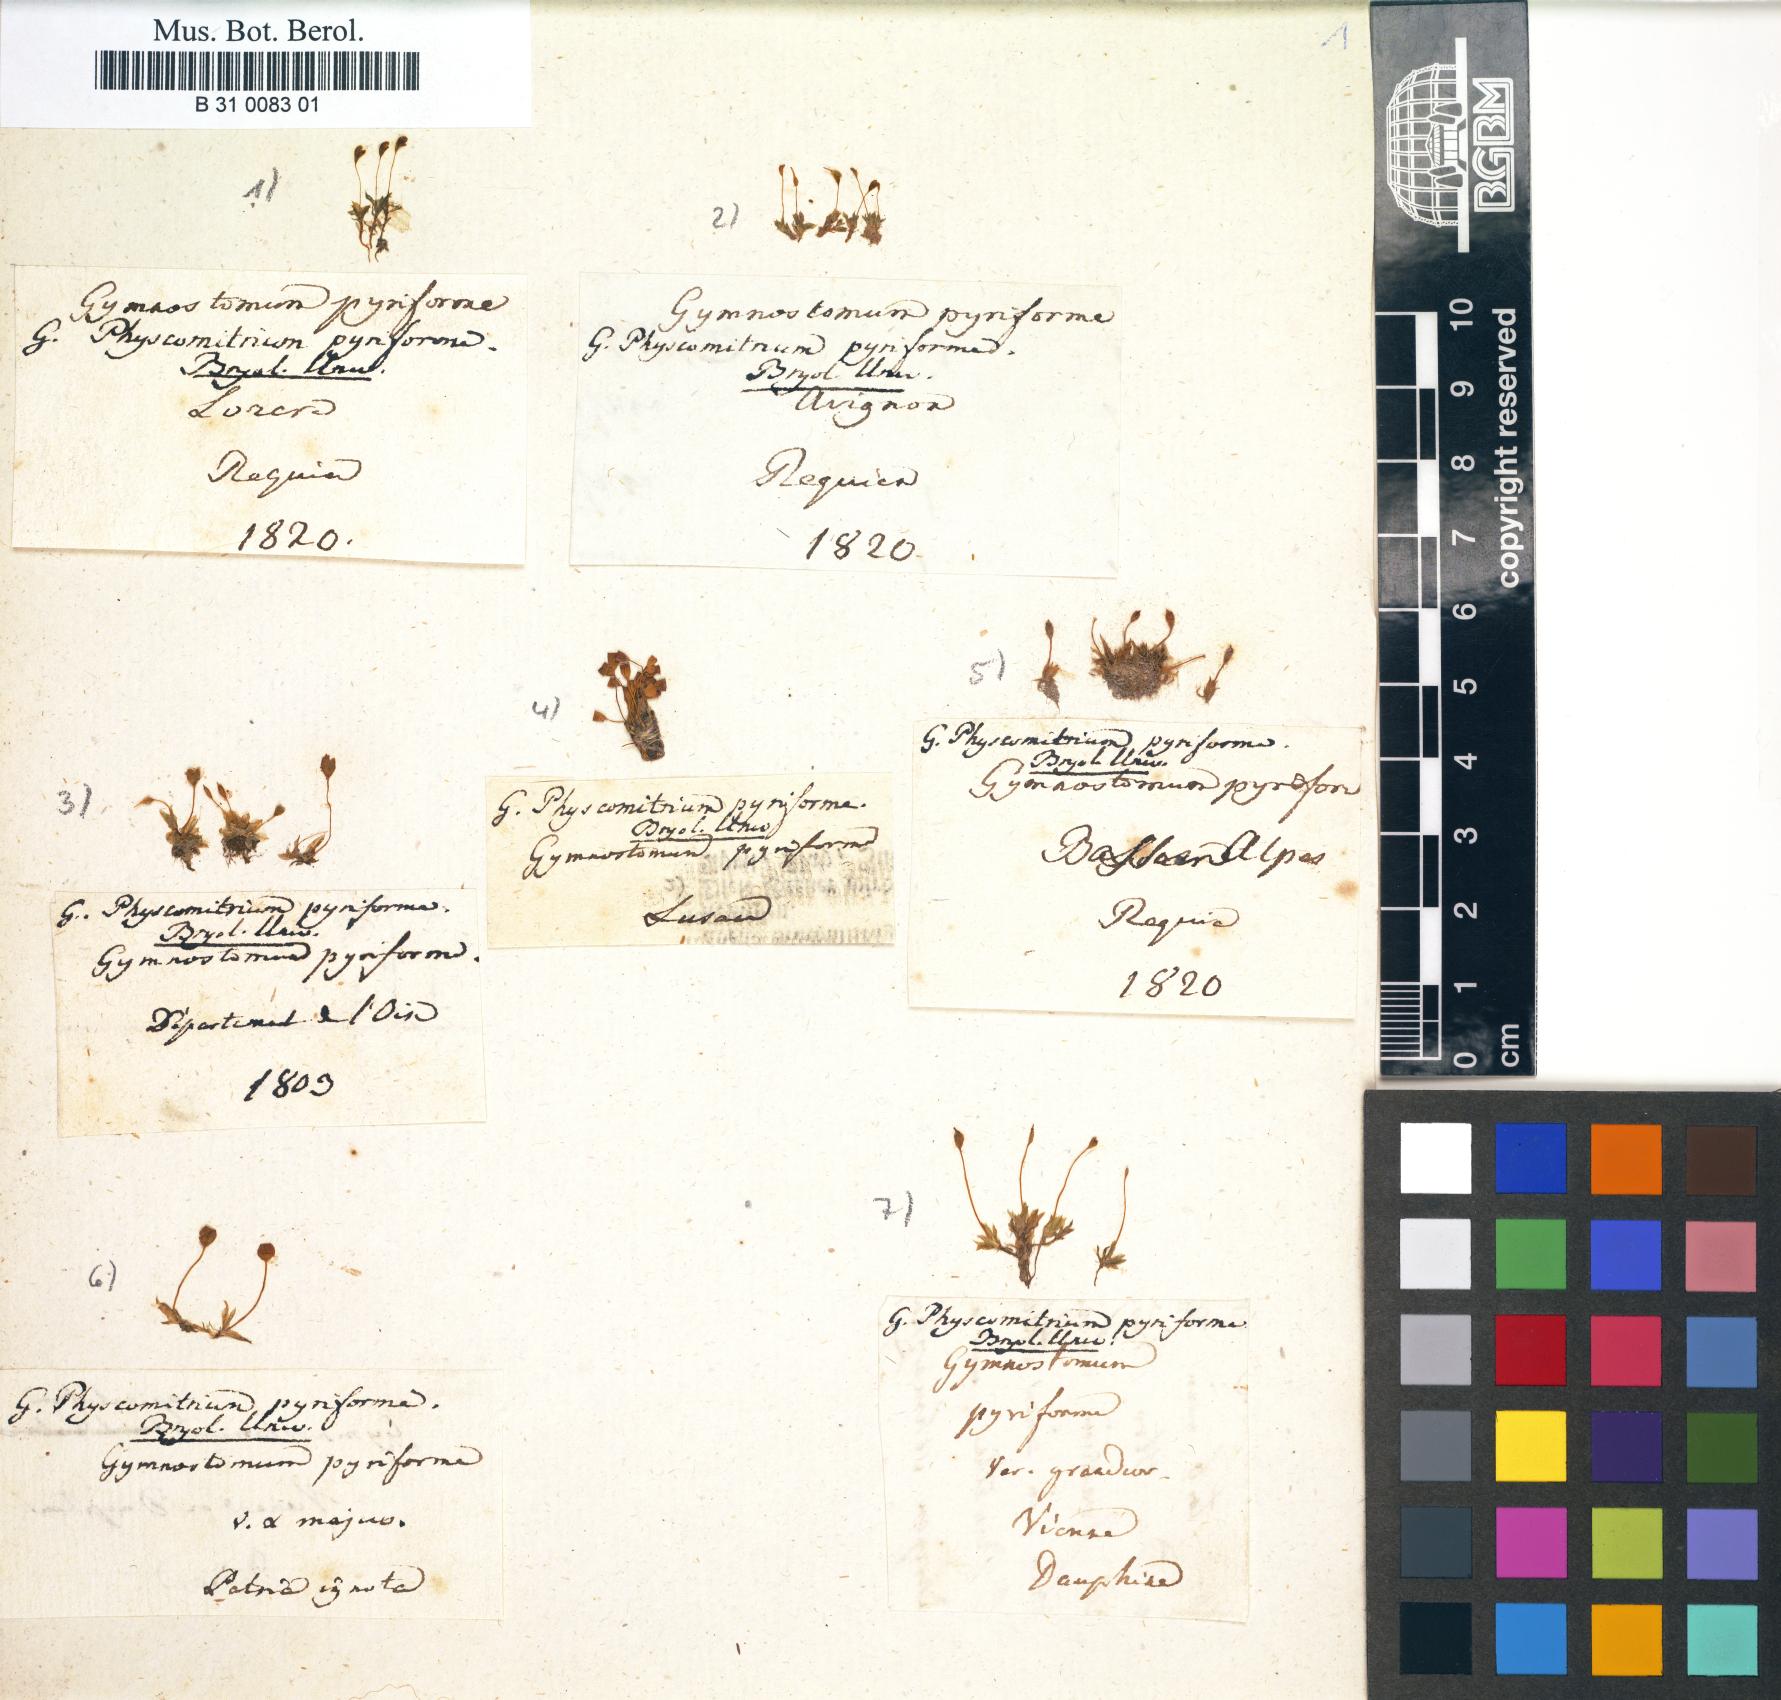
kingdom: Plantae
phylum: Bryophyta
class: Bryopsida
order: Funariales
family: Funariaceae
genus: Physcomitrium
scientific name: Physcomitrium pyriforme
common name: Common bladder-moss
